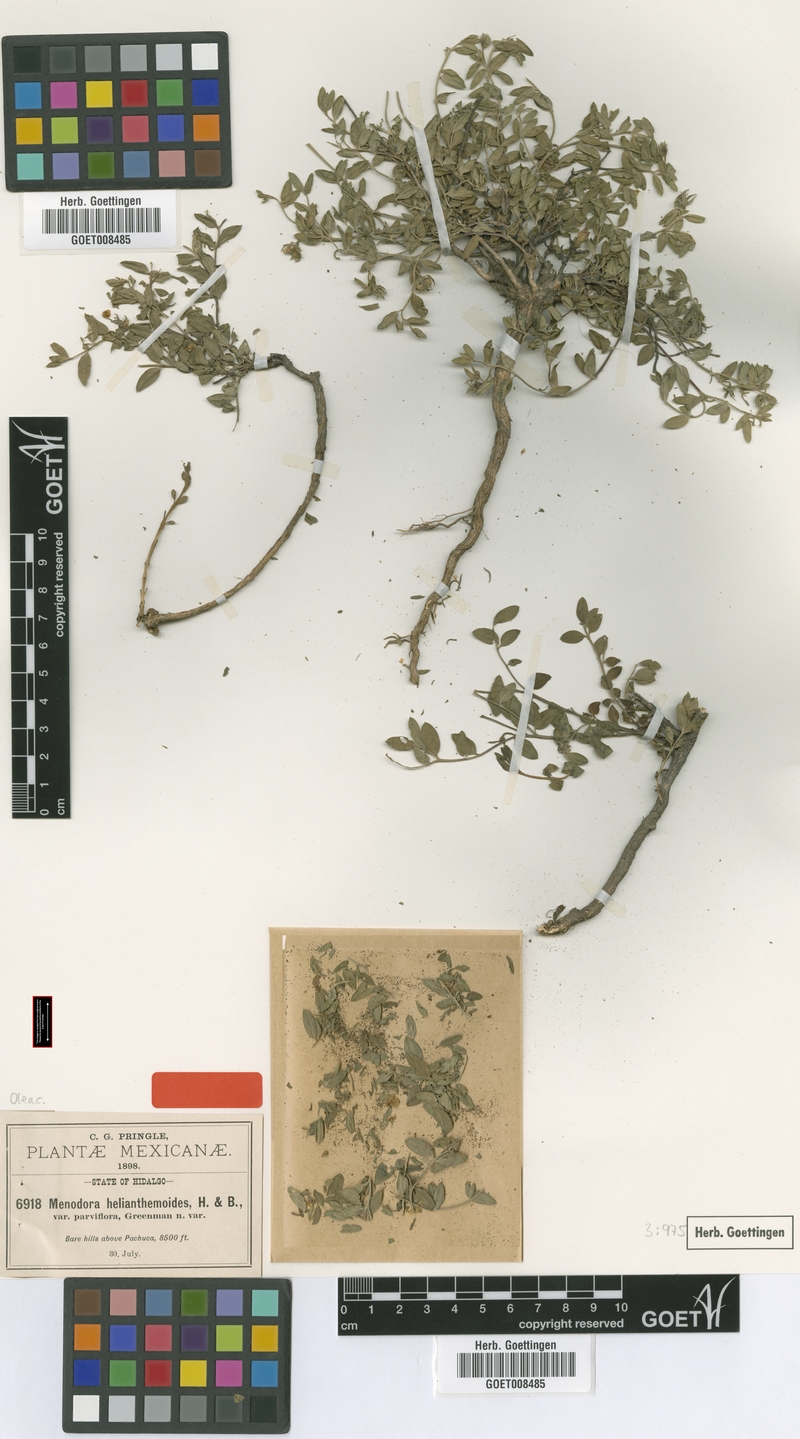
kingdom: Plantae
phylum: Tracheophyta
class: Magnoliopsida
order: Lamiales
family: Oleaceae
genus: Menodora
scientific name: Menodora helianthemoides
